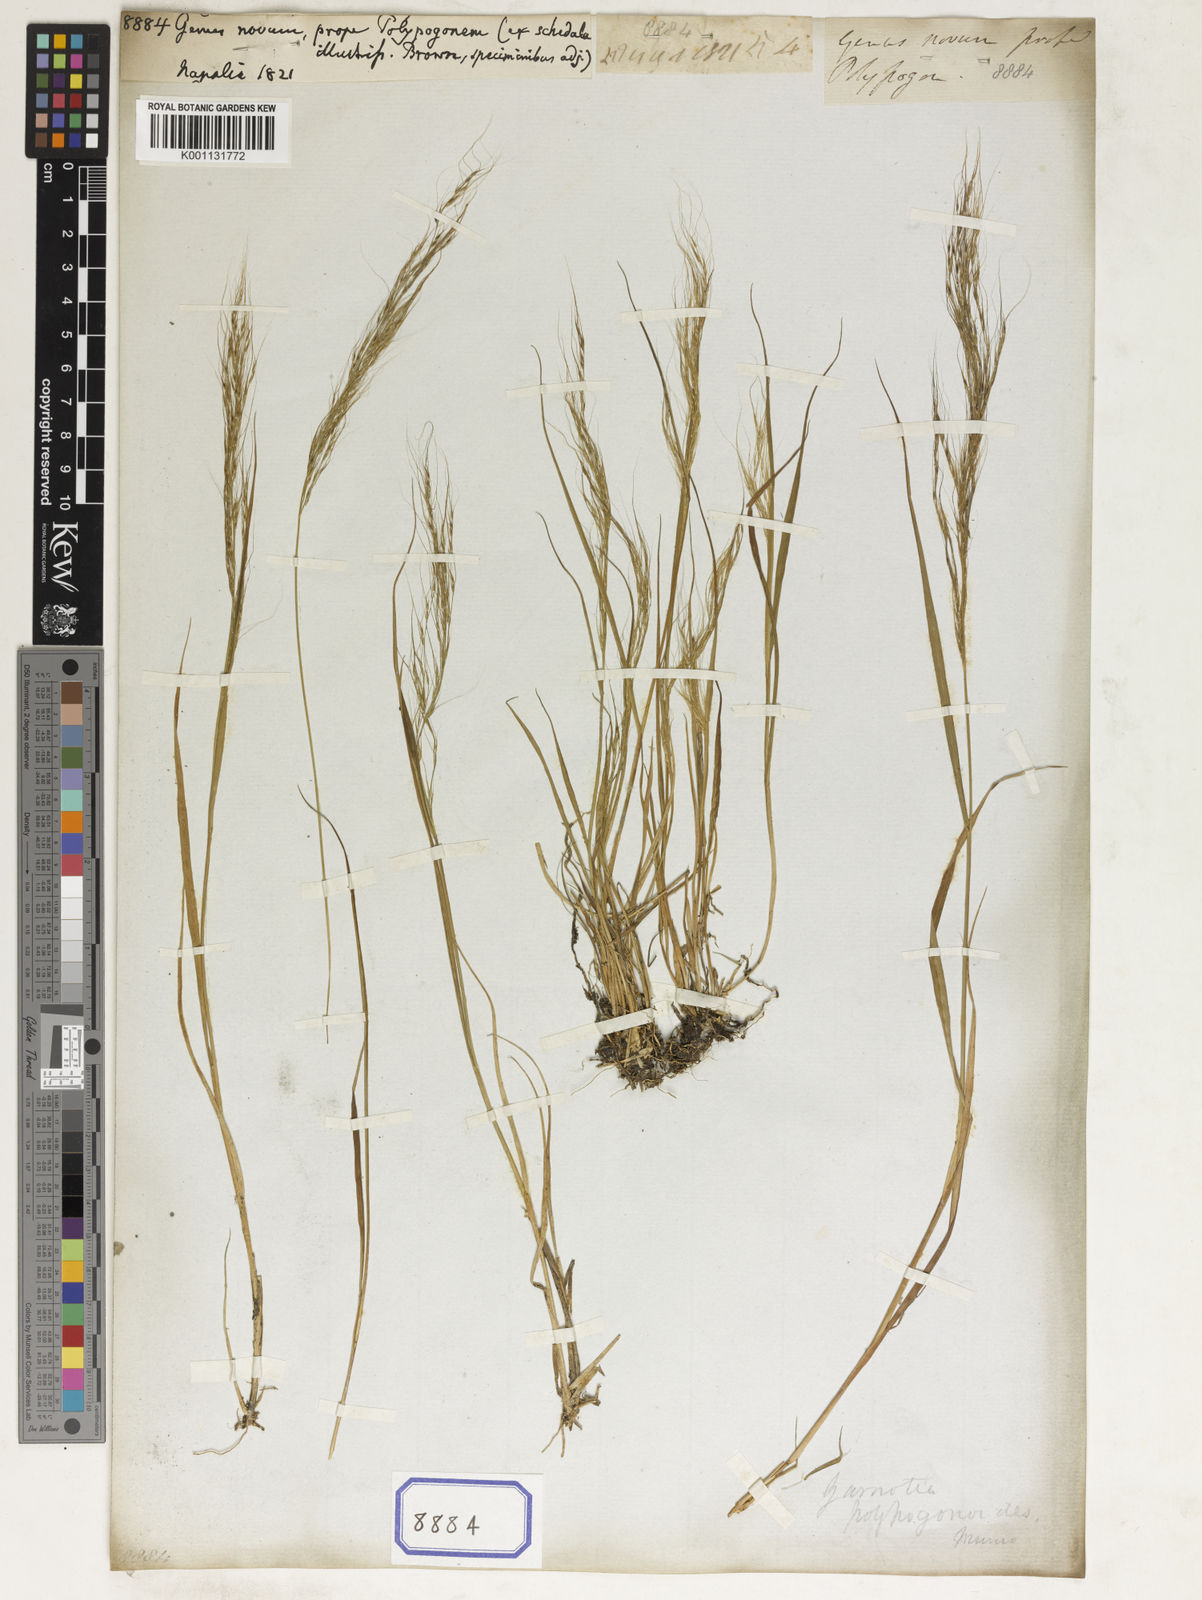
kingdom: Plantae
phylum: Tracheophyta
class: Liliopsida
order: Poales
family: Poaceae
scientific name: Poaceae
